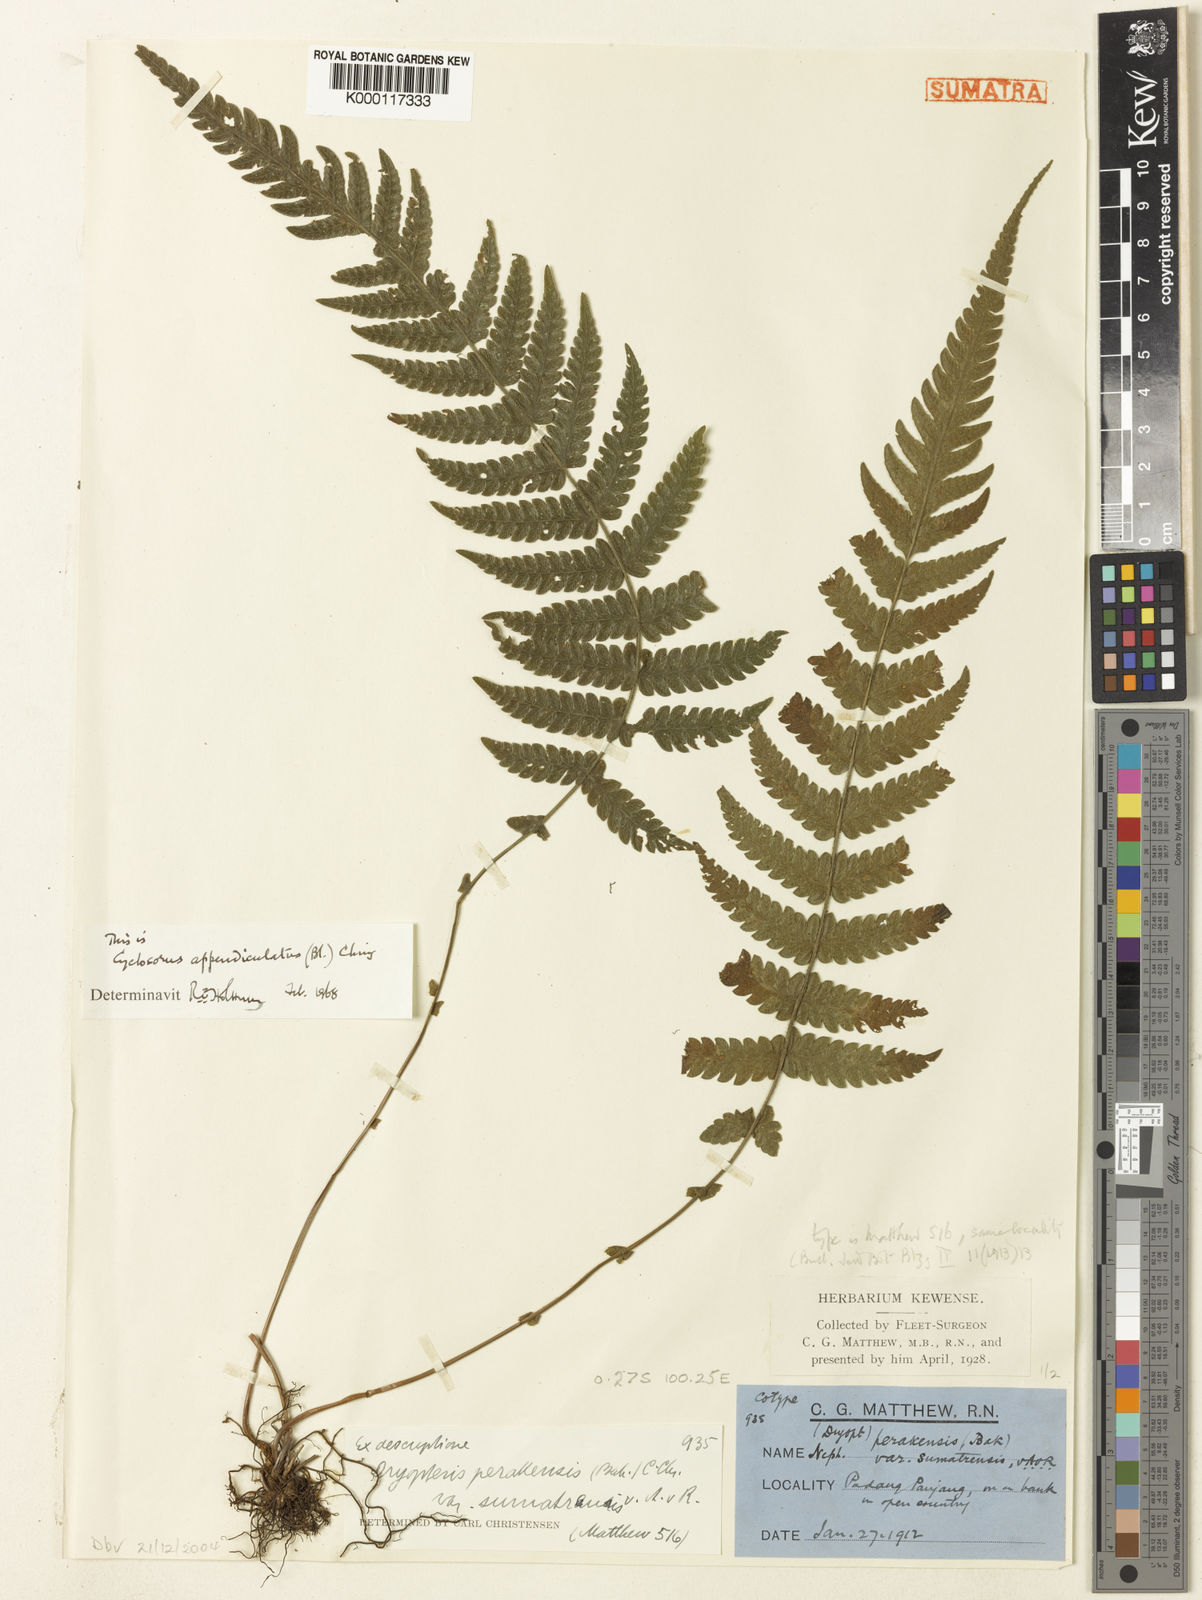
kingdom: Plantae
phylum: Tracheophyta
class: Polypodiopsida
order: Polypodiales
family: Thelypteridaceae
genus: Sphaerostephanos
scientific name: Sphaerostephanos appendiculatus
